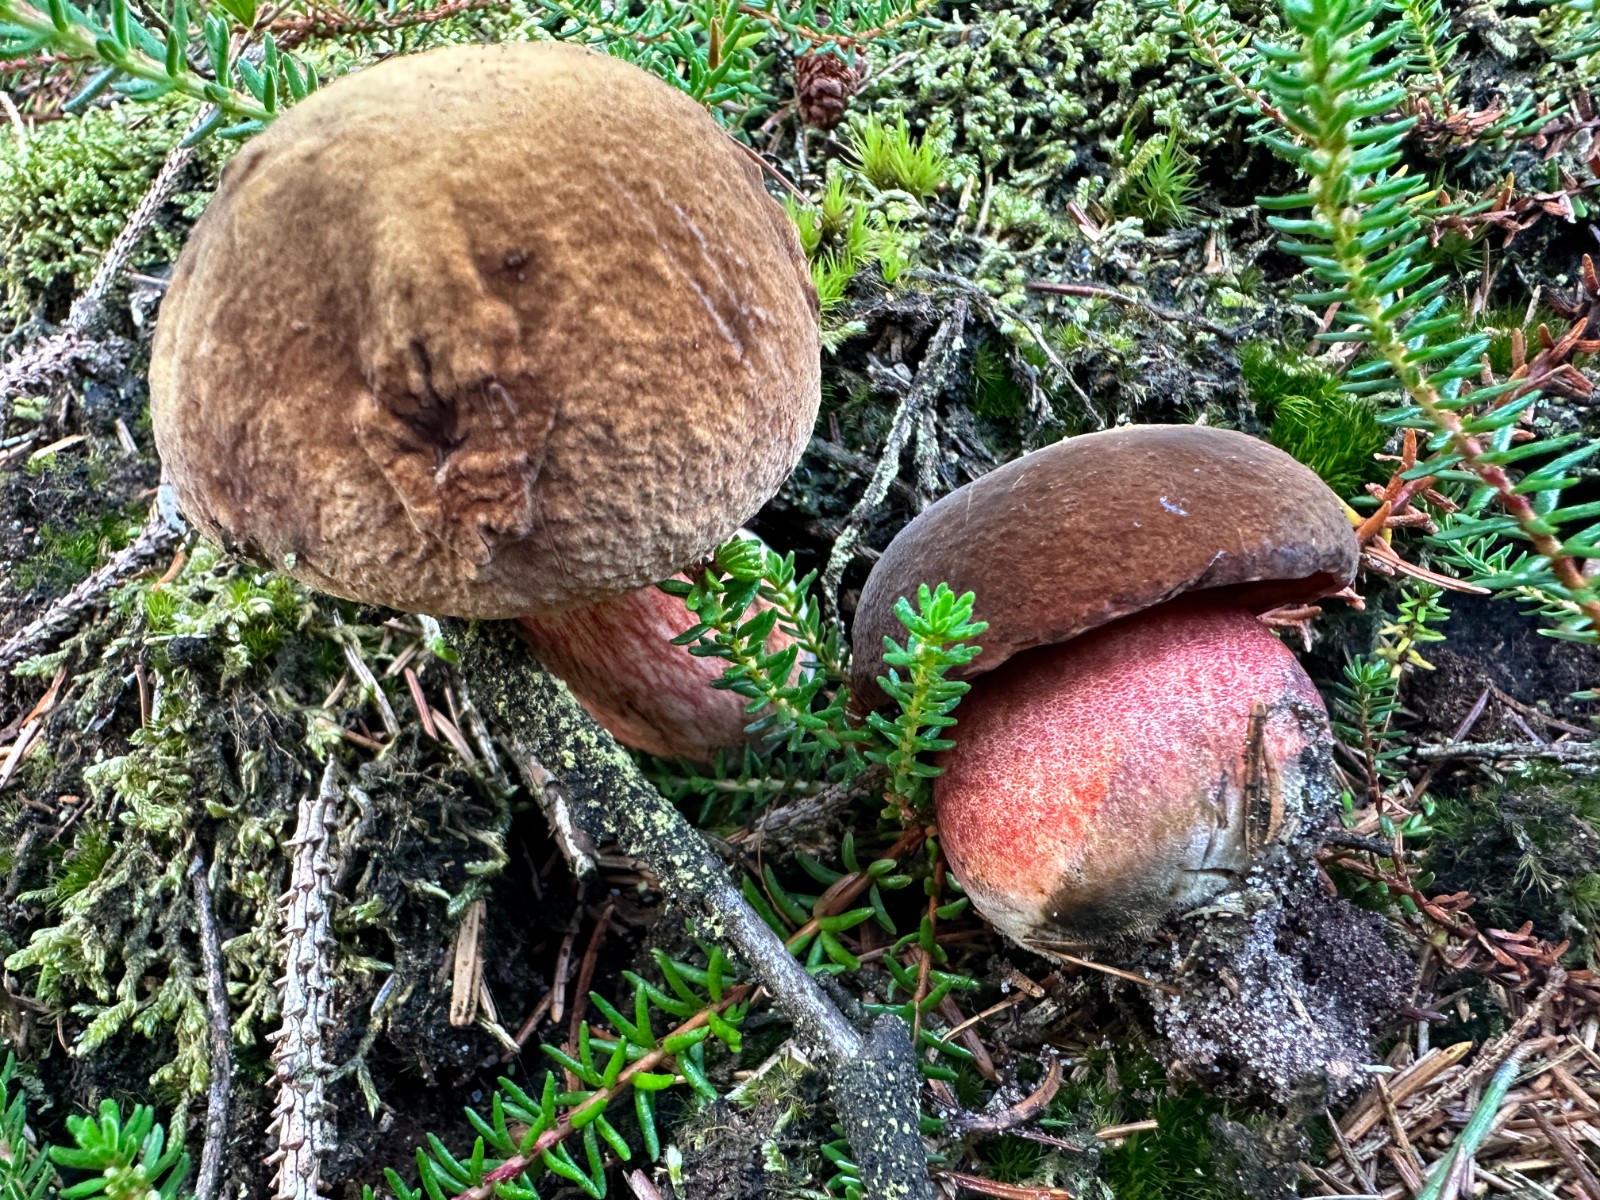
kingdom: Fungi
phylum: Basidiomycota
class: Agaricomycetes
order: Boletales
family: Boletaceae
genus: Neoboletus
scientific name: Neoboletus erythropus
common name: punktstokket indigorørhat
